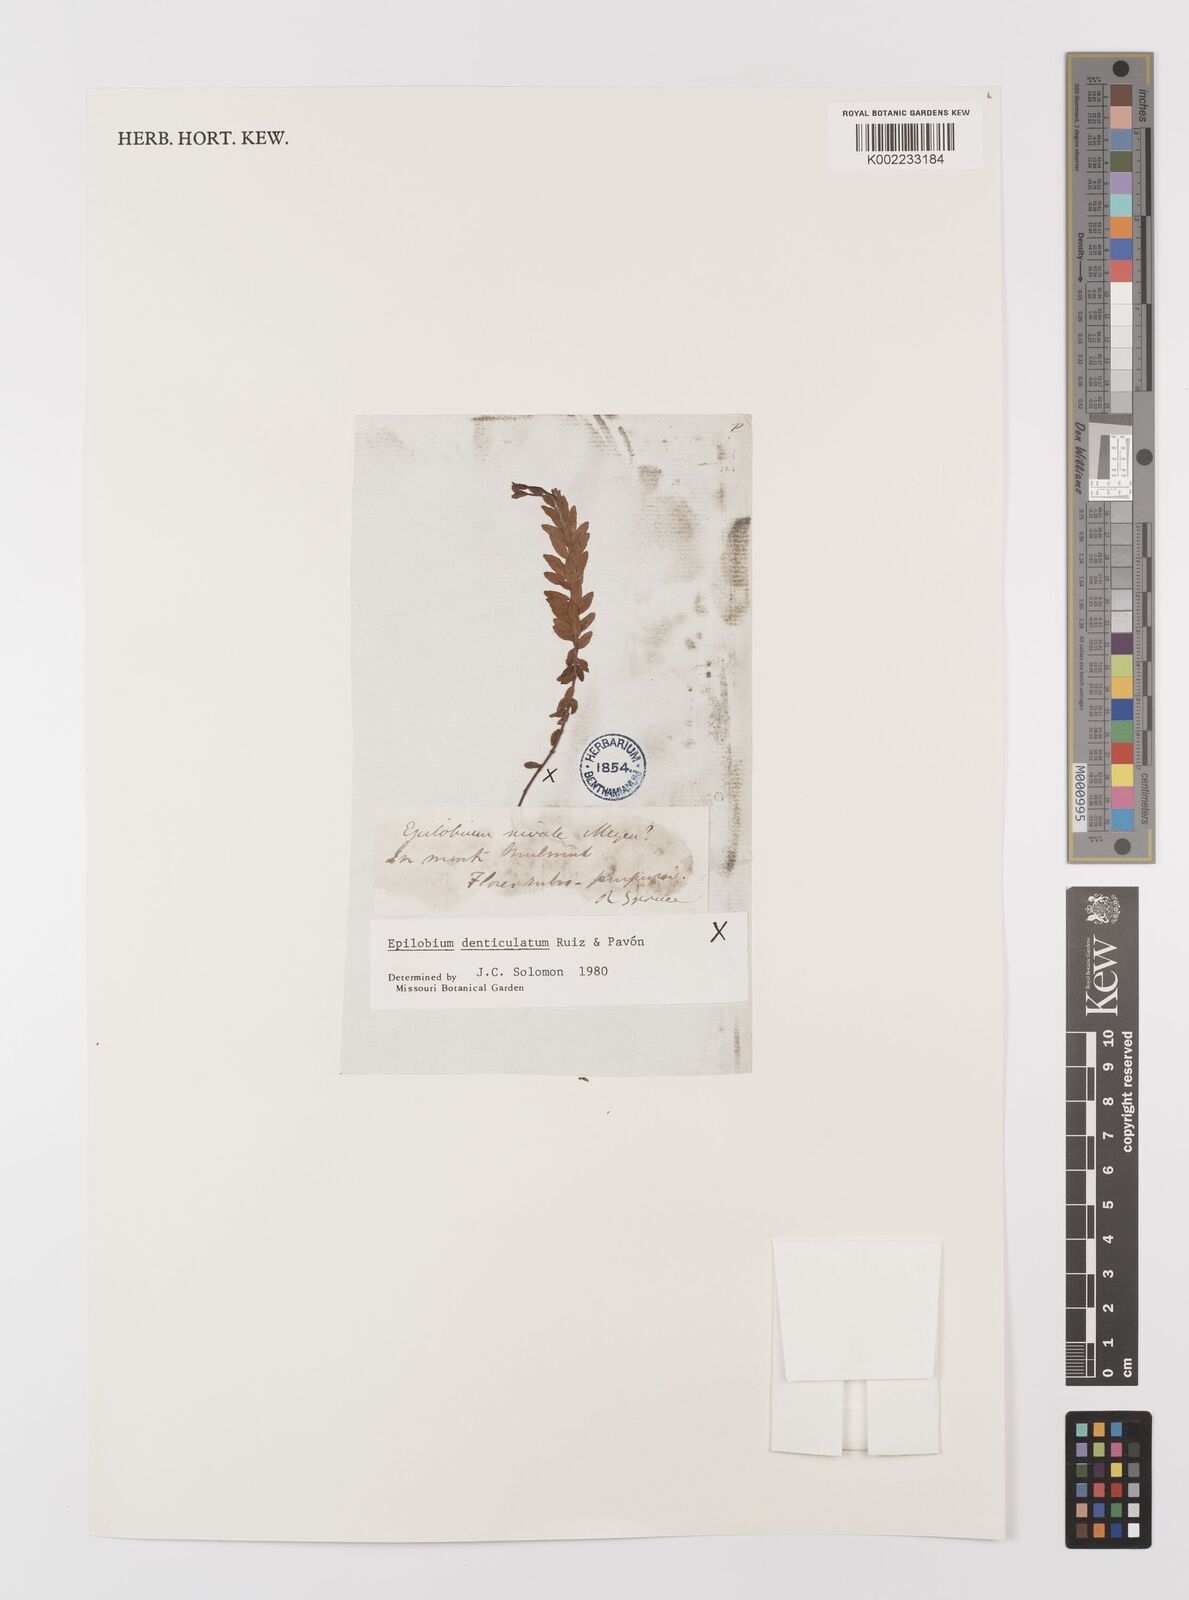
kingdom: Plantae
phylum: Tracheophyta
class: Magnoliopsida
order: Myrtales
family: Onagraceae
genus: Epilobium
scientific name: Epilobium denticulatum
